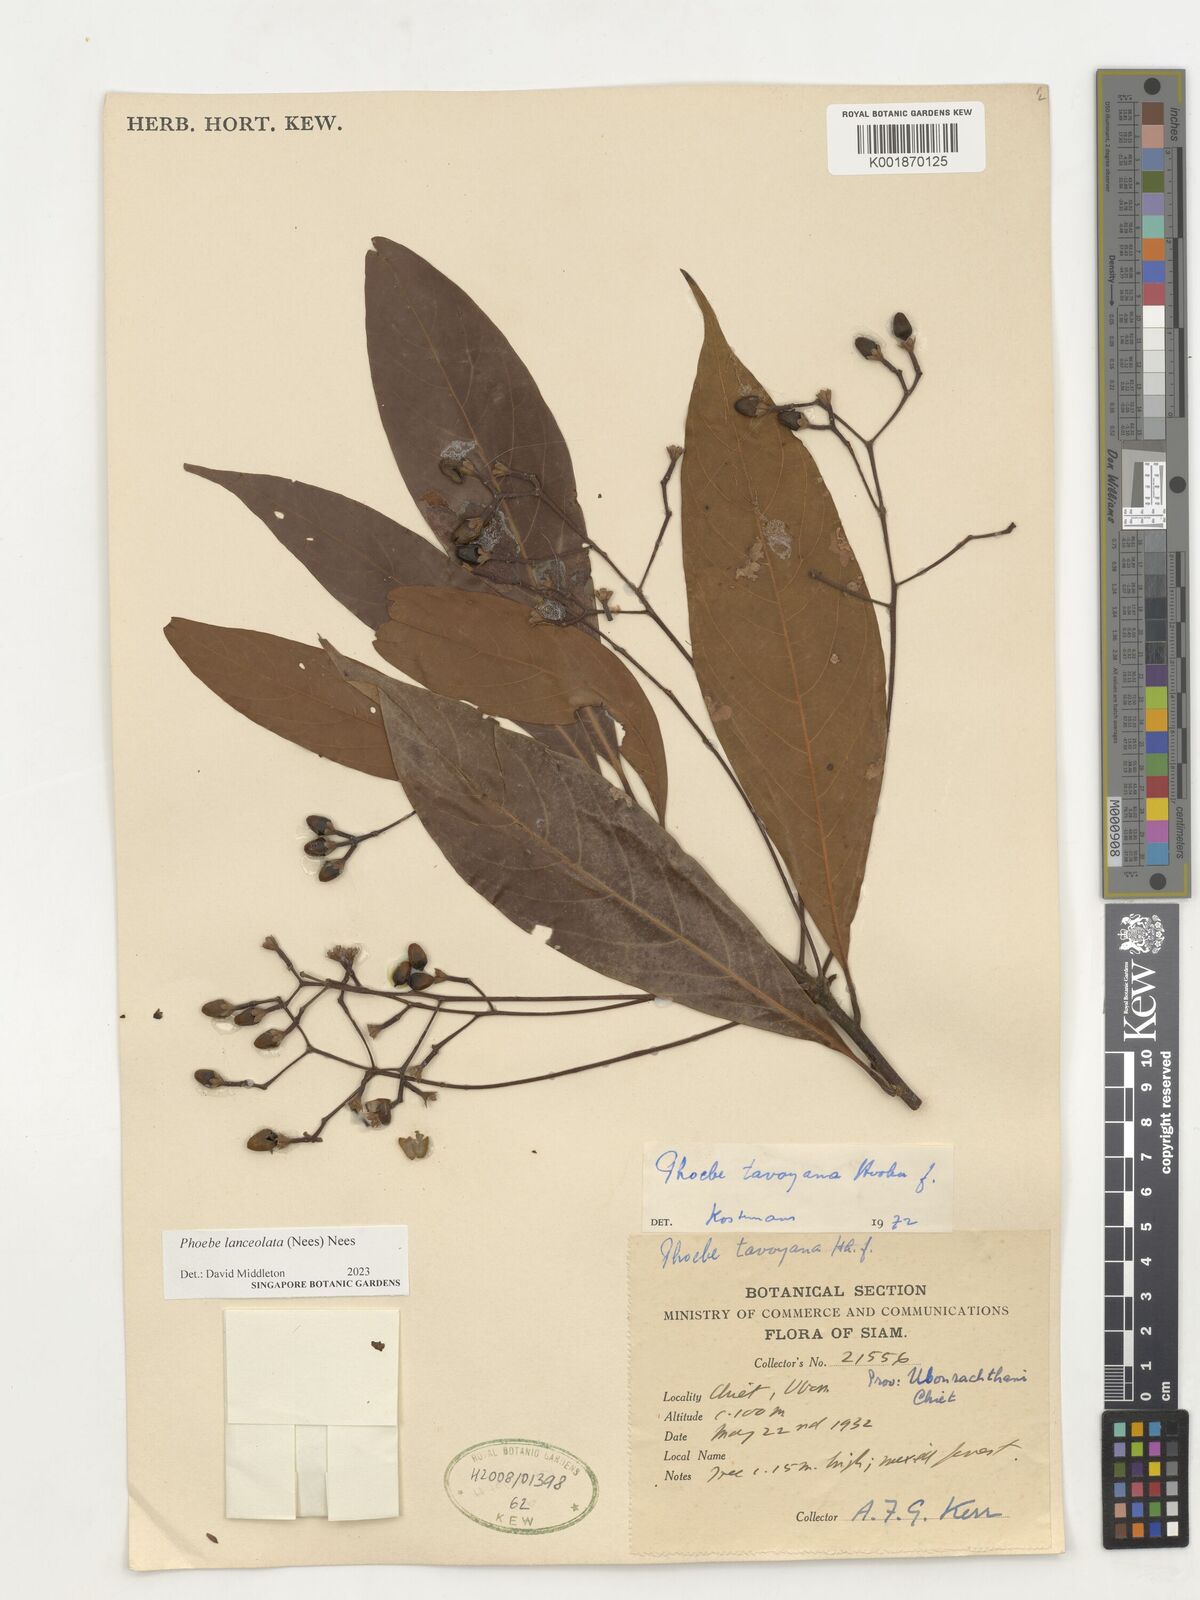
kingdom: Plantae
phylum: Tracheophyta
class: Magnoliopsida
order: Laurales
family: Lauraceae
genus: Phoebe
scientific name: Phoebe lanceolata
